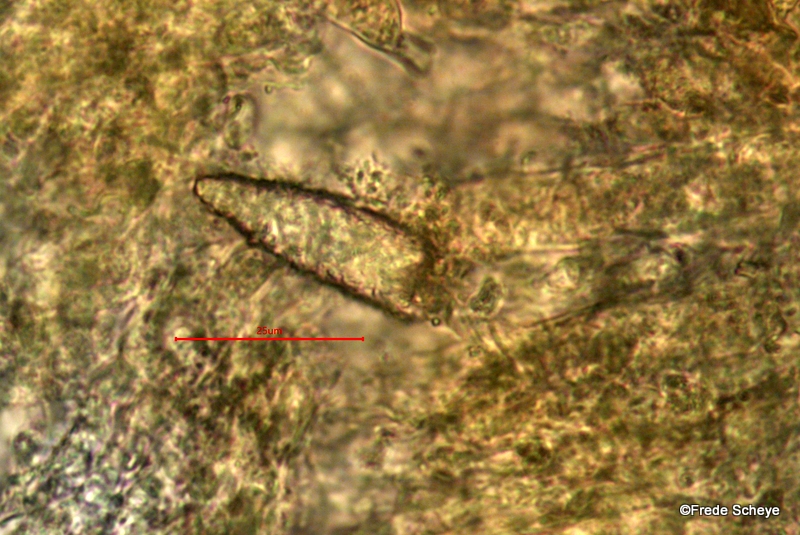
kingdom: Fungi
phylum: Basidiomycota
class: Agaricomycetes
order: Russulales
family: Peniophoraceae
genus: Peniophora
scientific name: Peniophora incarnata
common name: laksefarvet voksskind
